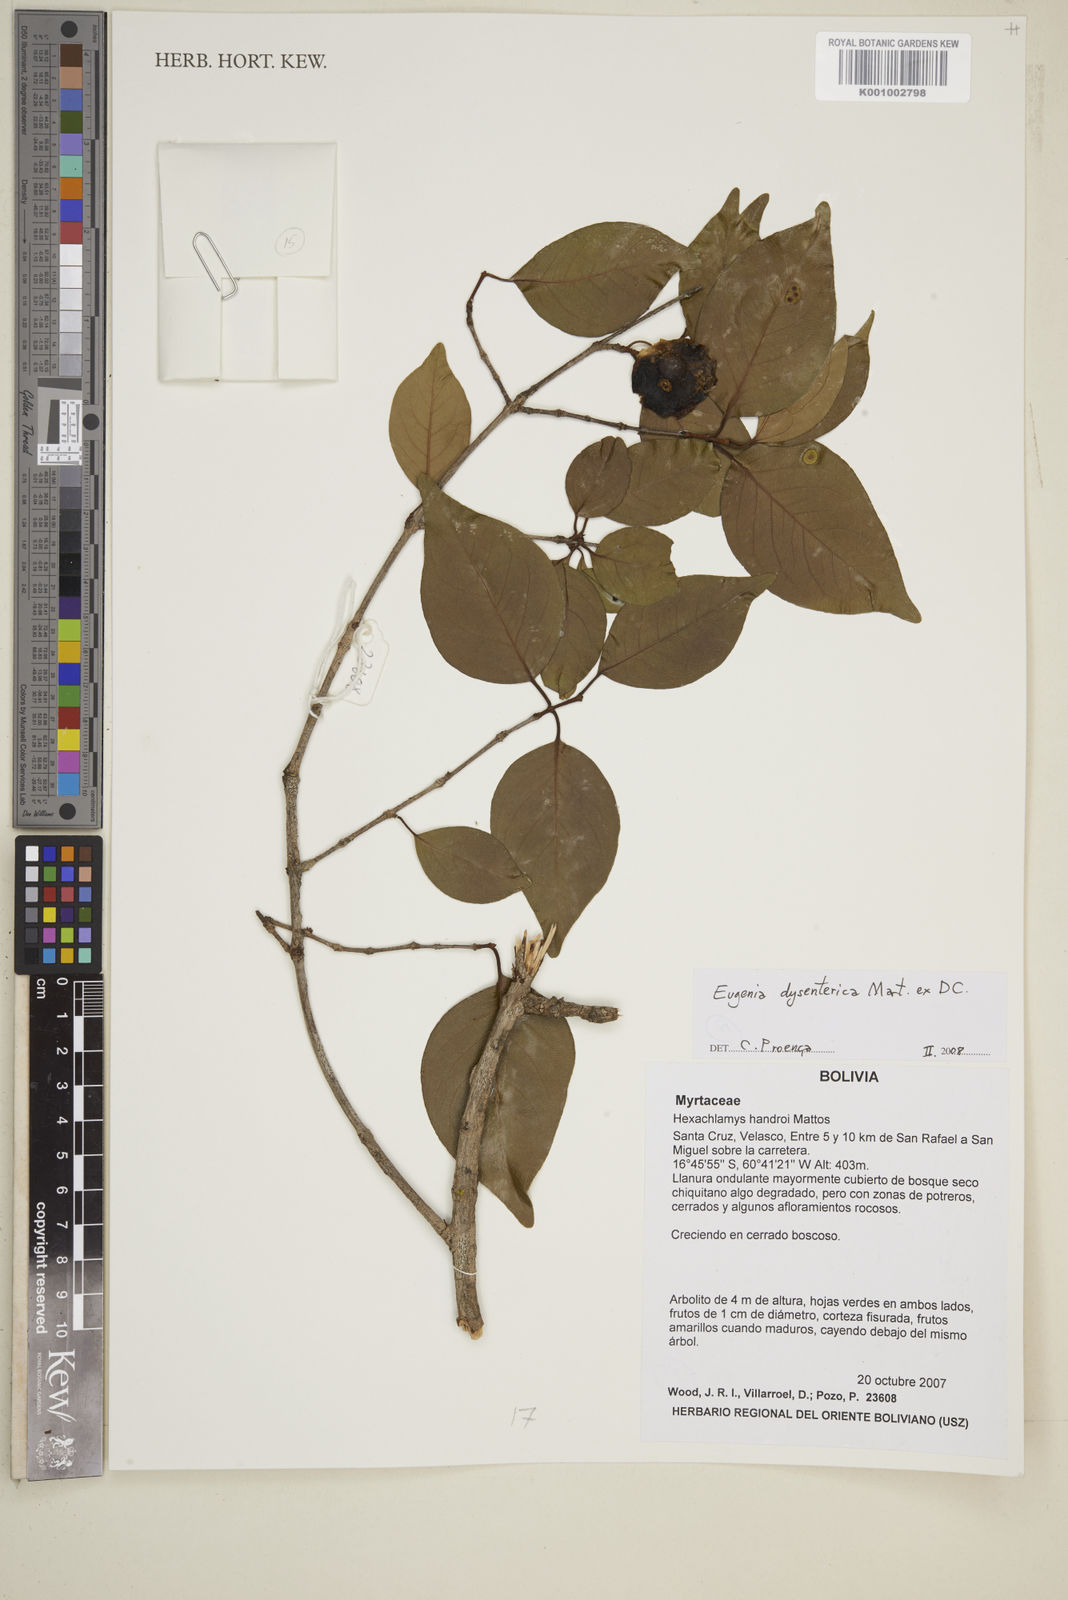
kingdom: Plantae
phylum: Tracheophyta
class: Magnoliopsida
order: Myrtales
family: Myrtaceae
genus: Eugenia
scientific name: Eugenia dysenterica
